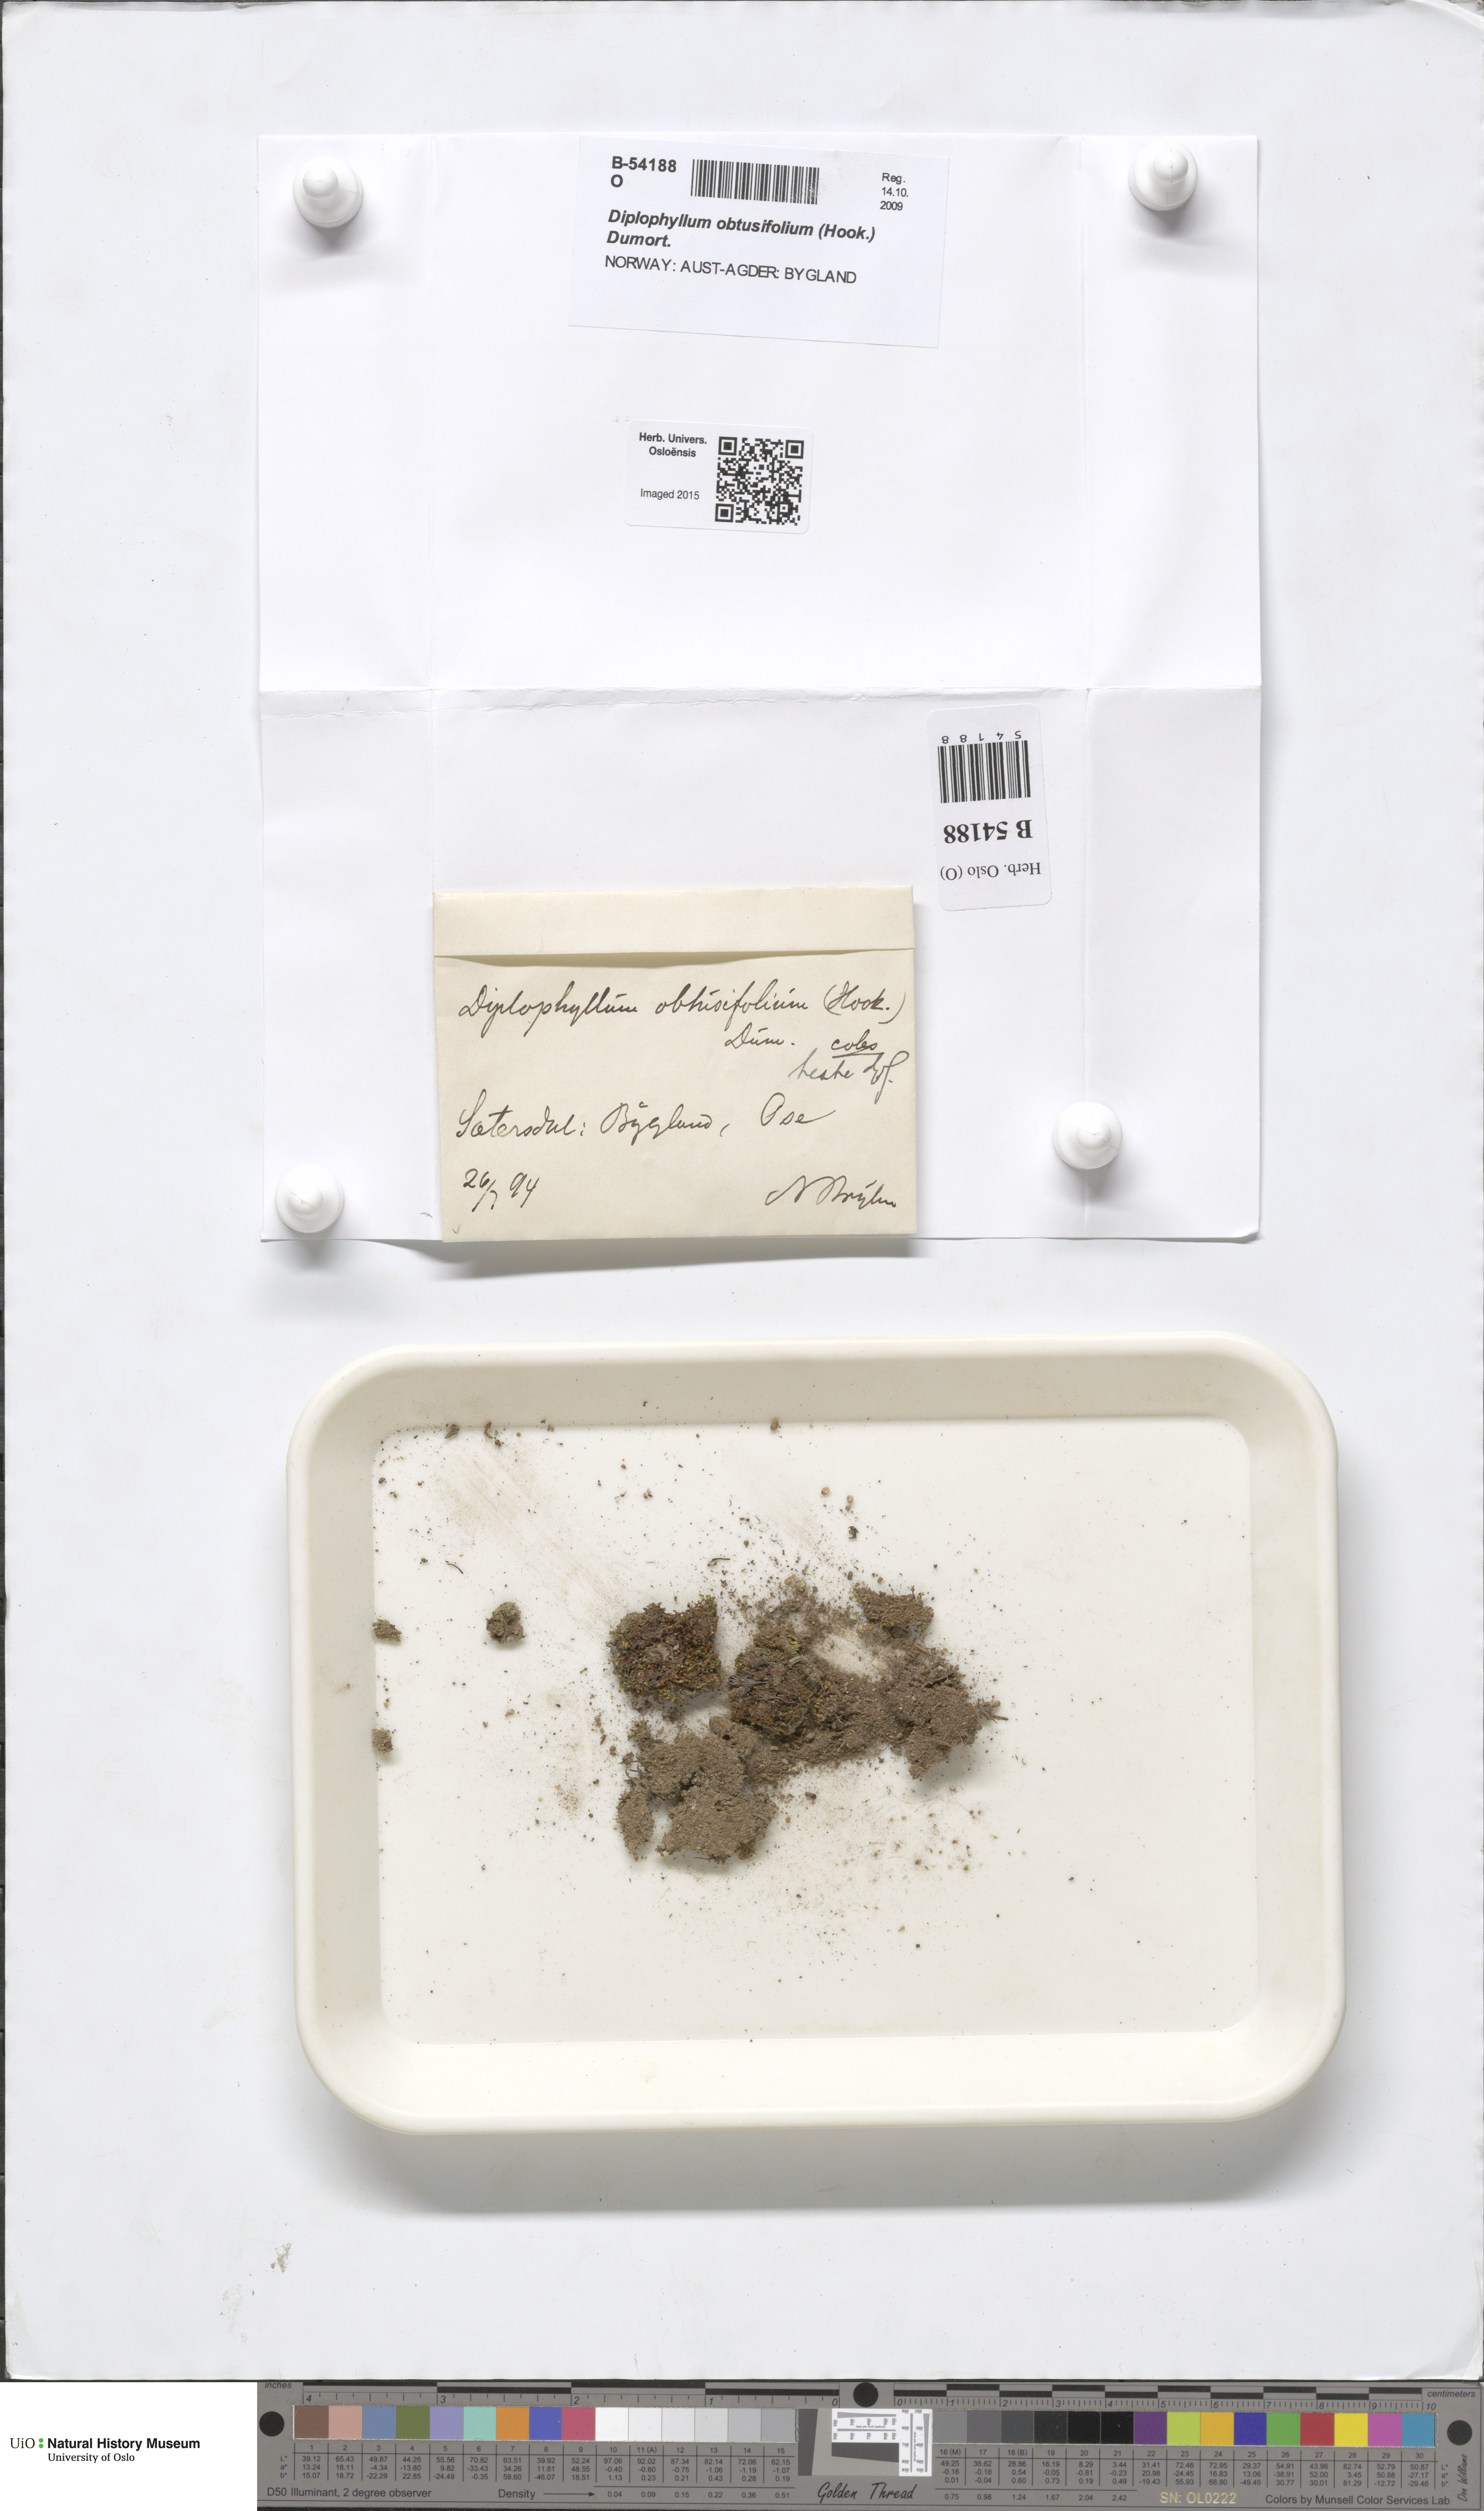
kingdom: Plantae
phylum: Marchantiophyta
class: Jungermanniopsida
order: Jungermanniales
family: Scapaniaceae
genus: Diplophyllum
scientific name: Diplophyllum obtusifolium
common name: Blunt-leaved earwort
